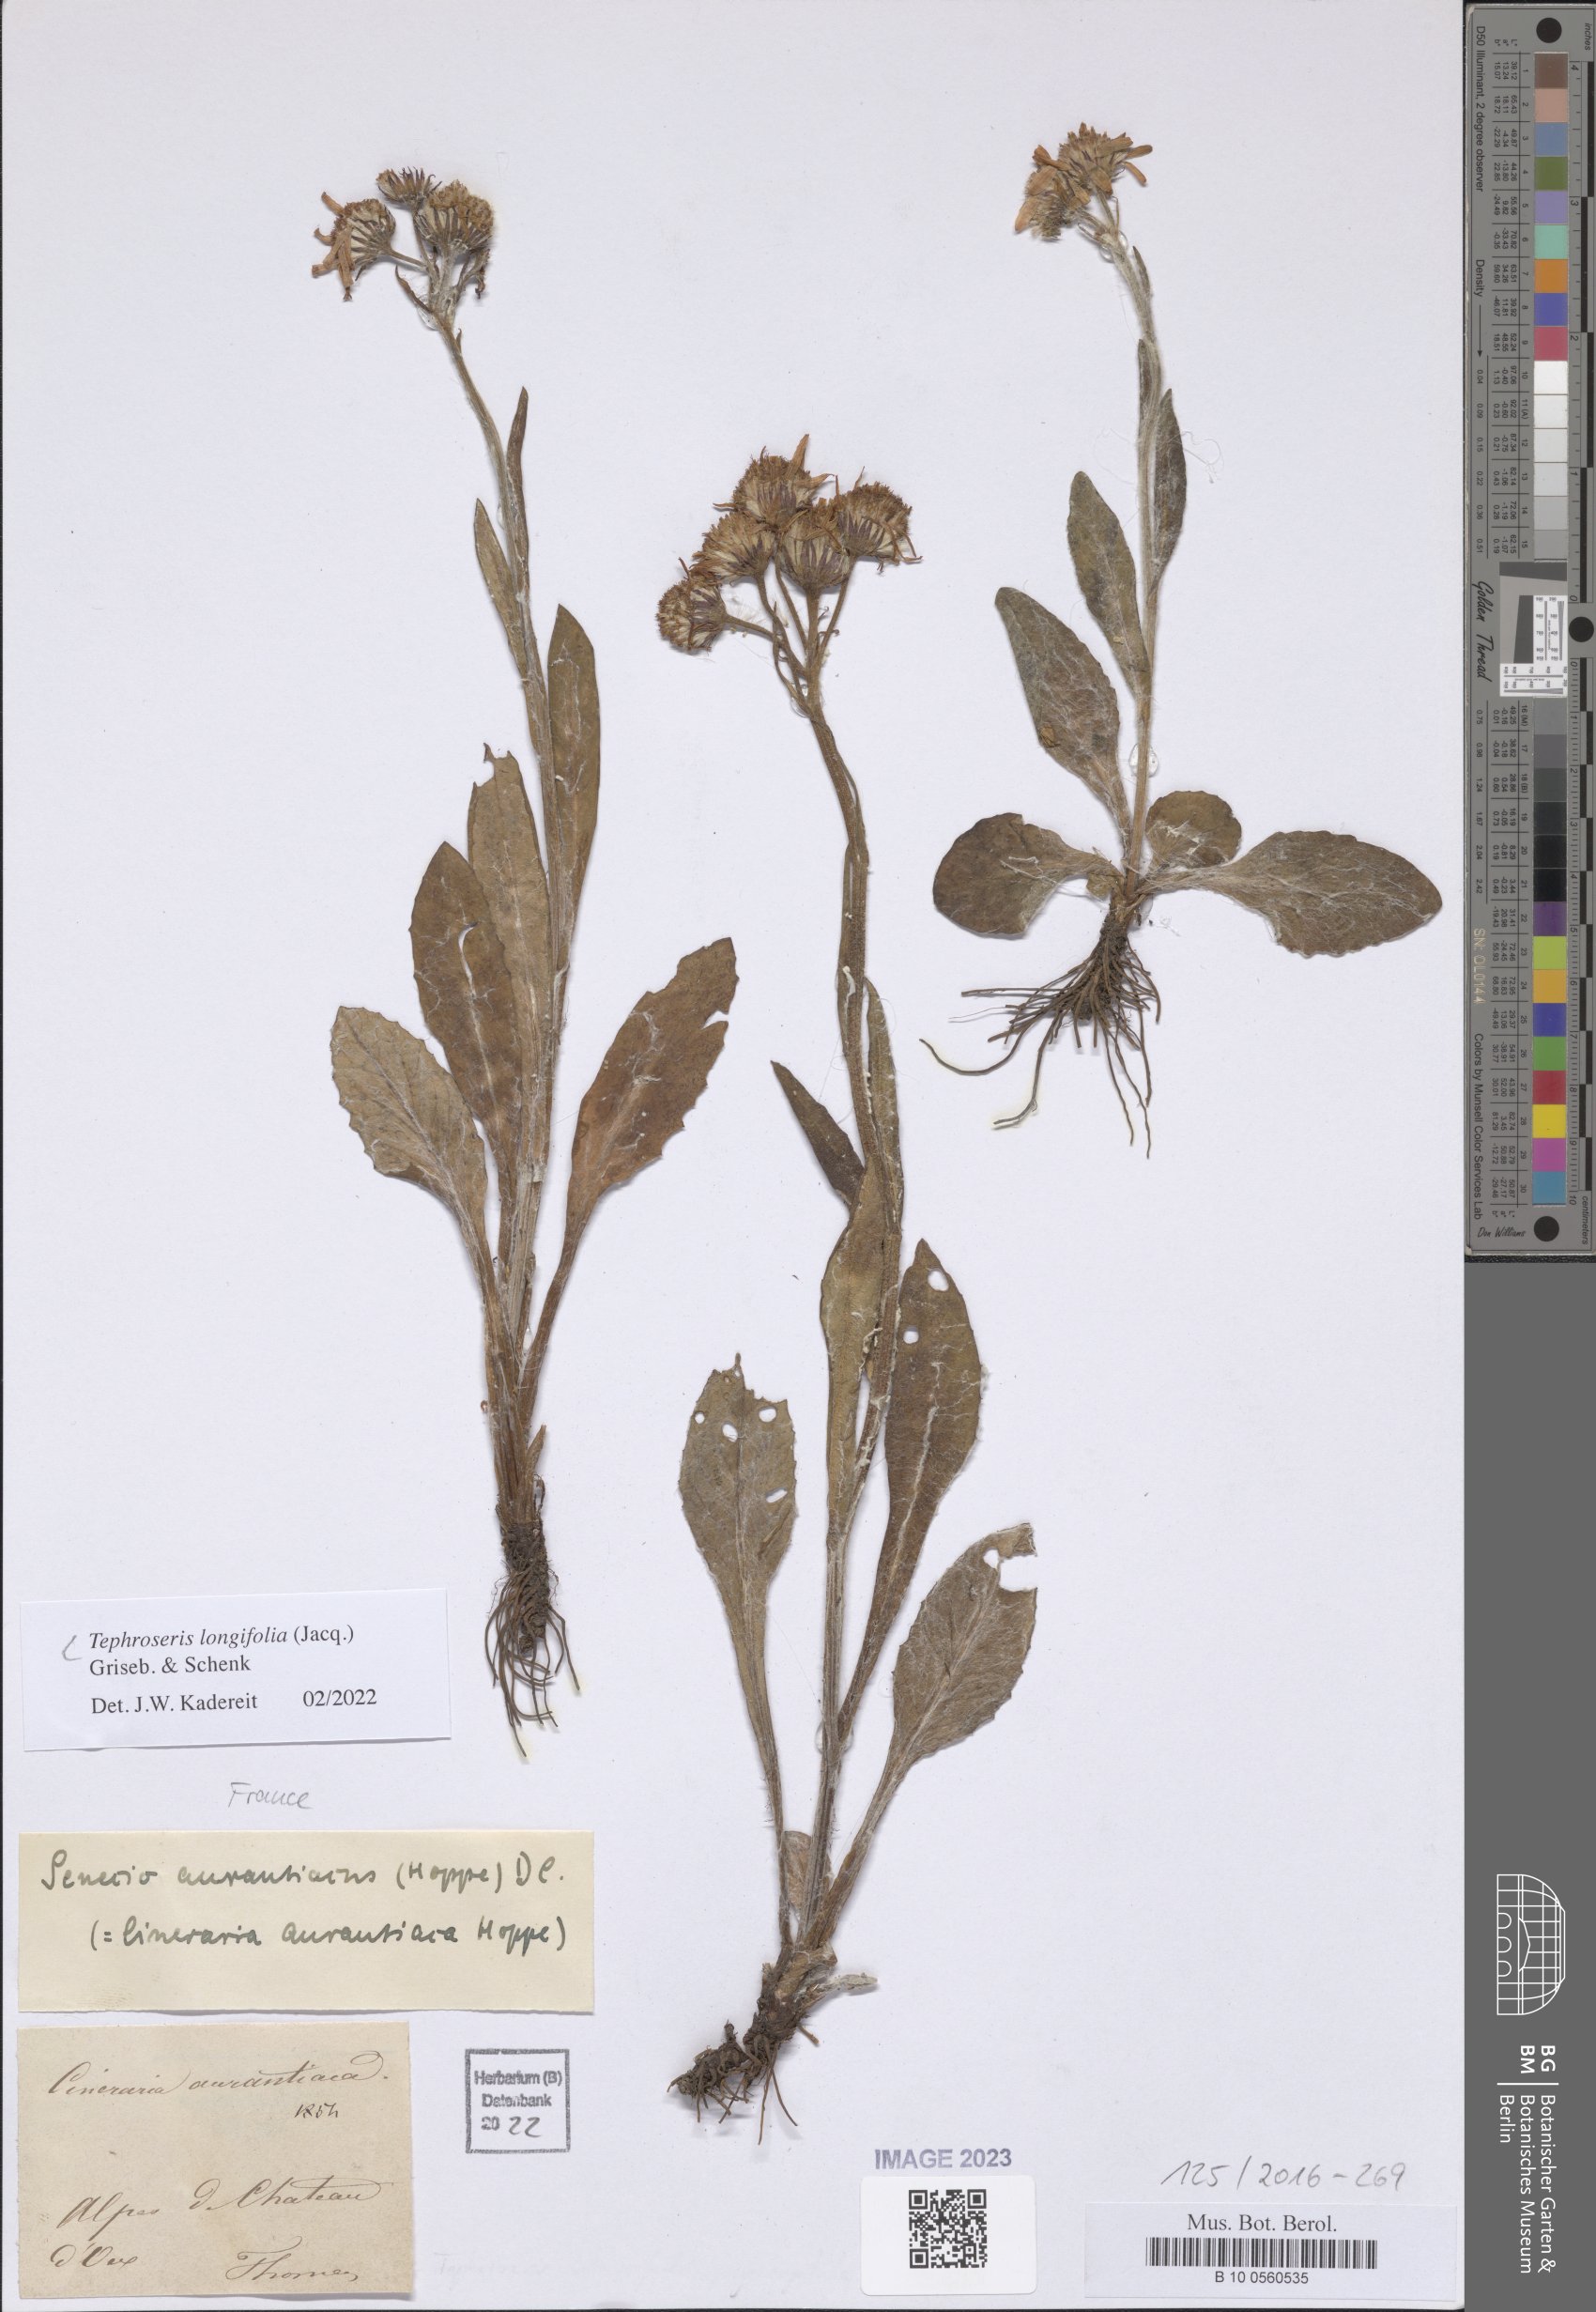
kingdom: Plantae
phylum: Tracheophyta
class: Magnoliopsida
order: Asterales
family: Asteraceae
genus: Tephroseris
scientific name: Tephroseris longifolia
